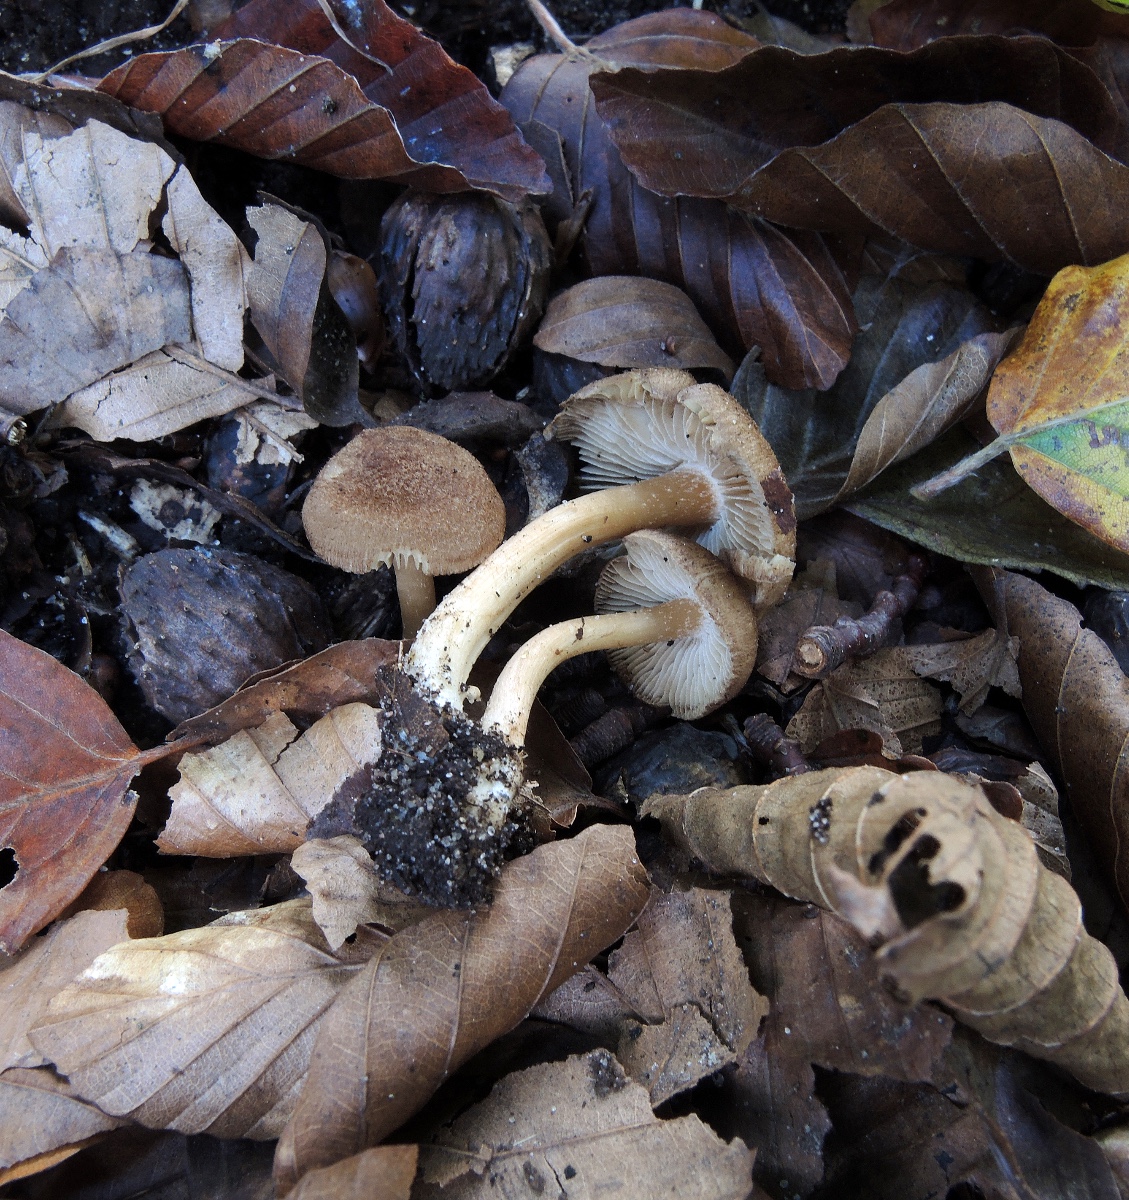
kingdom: Fungi
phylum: Basidiomycota
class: Agaricomycetes
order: Agaricales
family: Inocybaceae
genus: Inocybe
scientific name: Inocybe catalaunica
